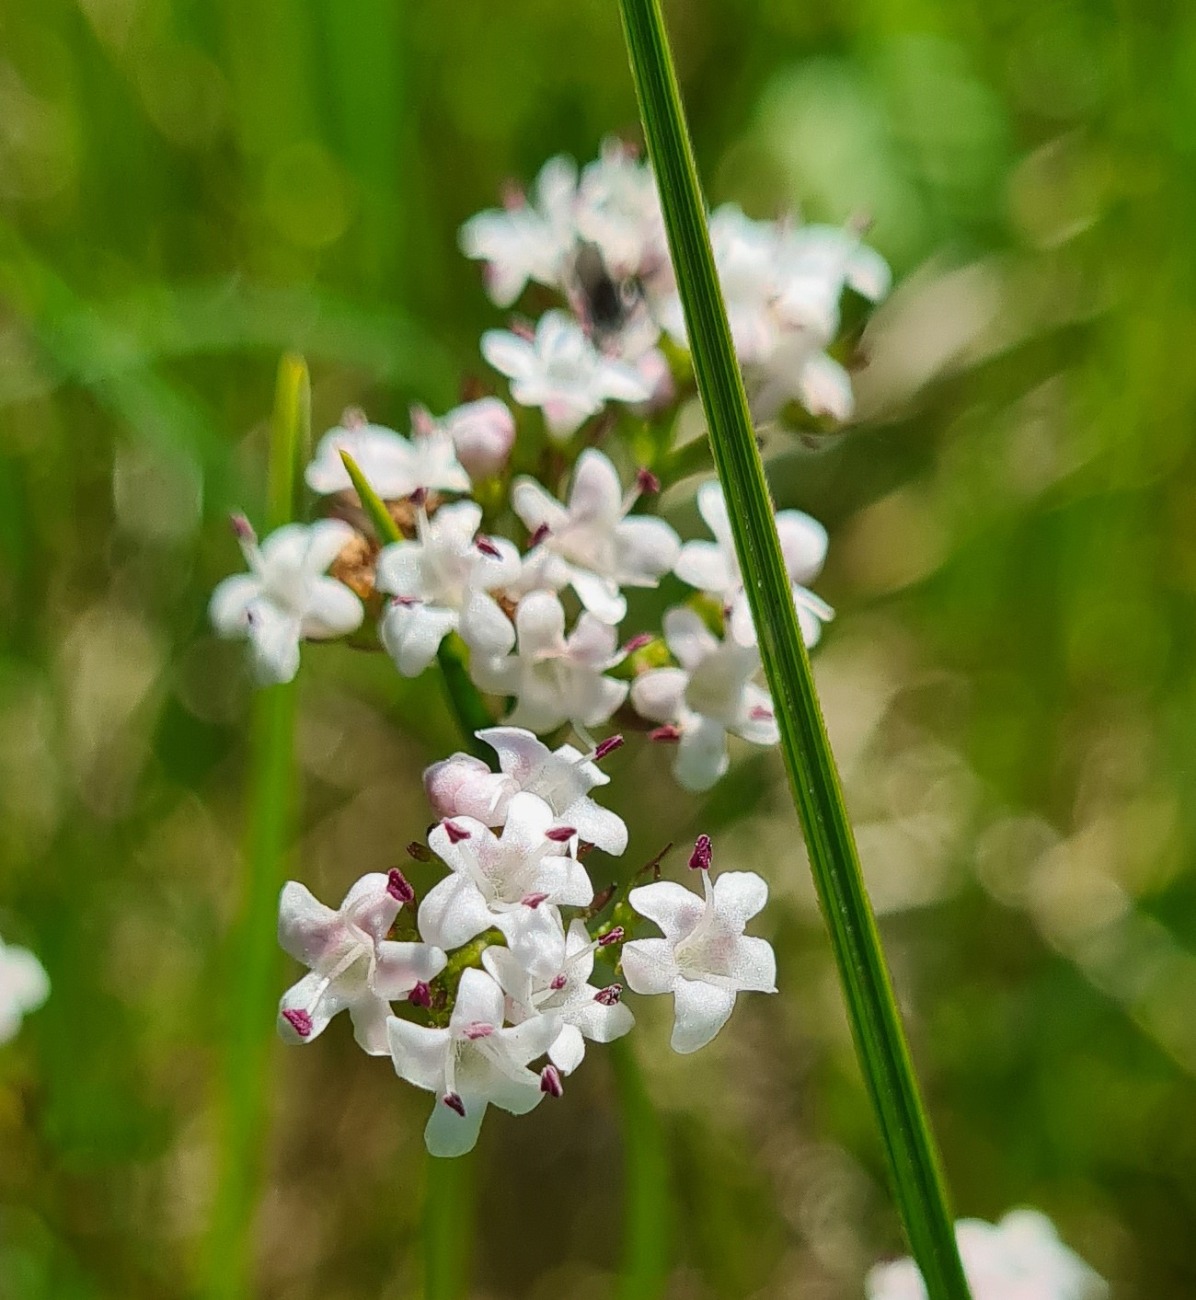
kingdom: Plantae
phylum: Tracheophyta
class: Magnoliopsida
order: Dipsacales
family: Caprifoliaceae
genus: Valeriana
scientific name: Valeriana dioica
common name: Tvebo baldrian
